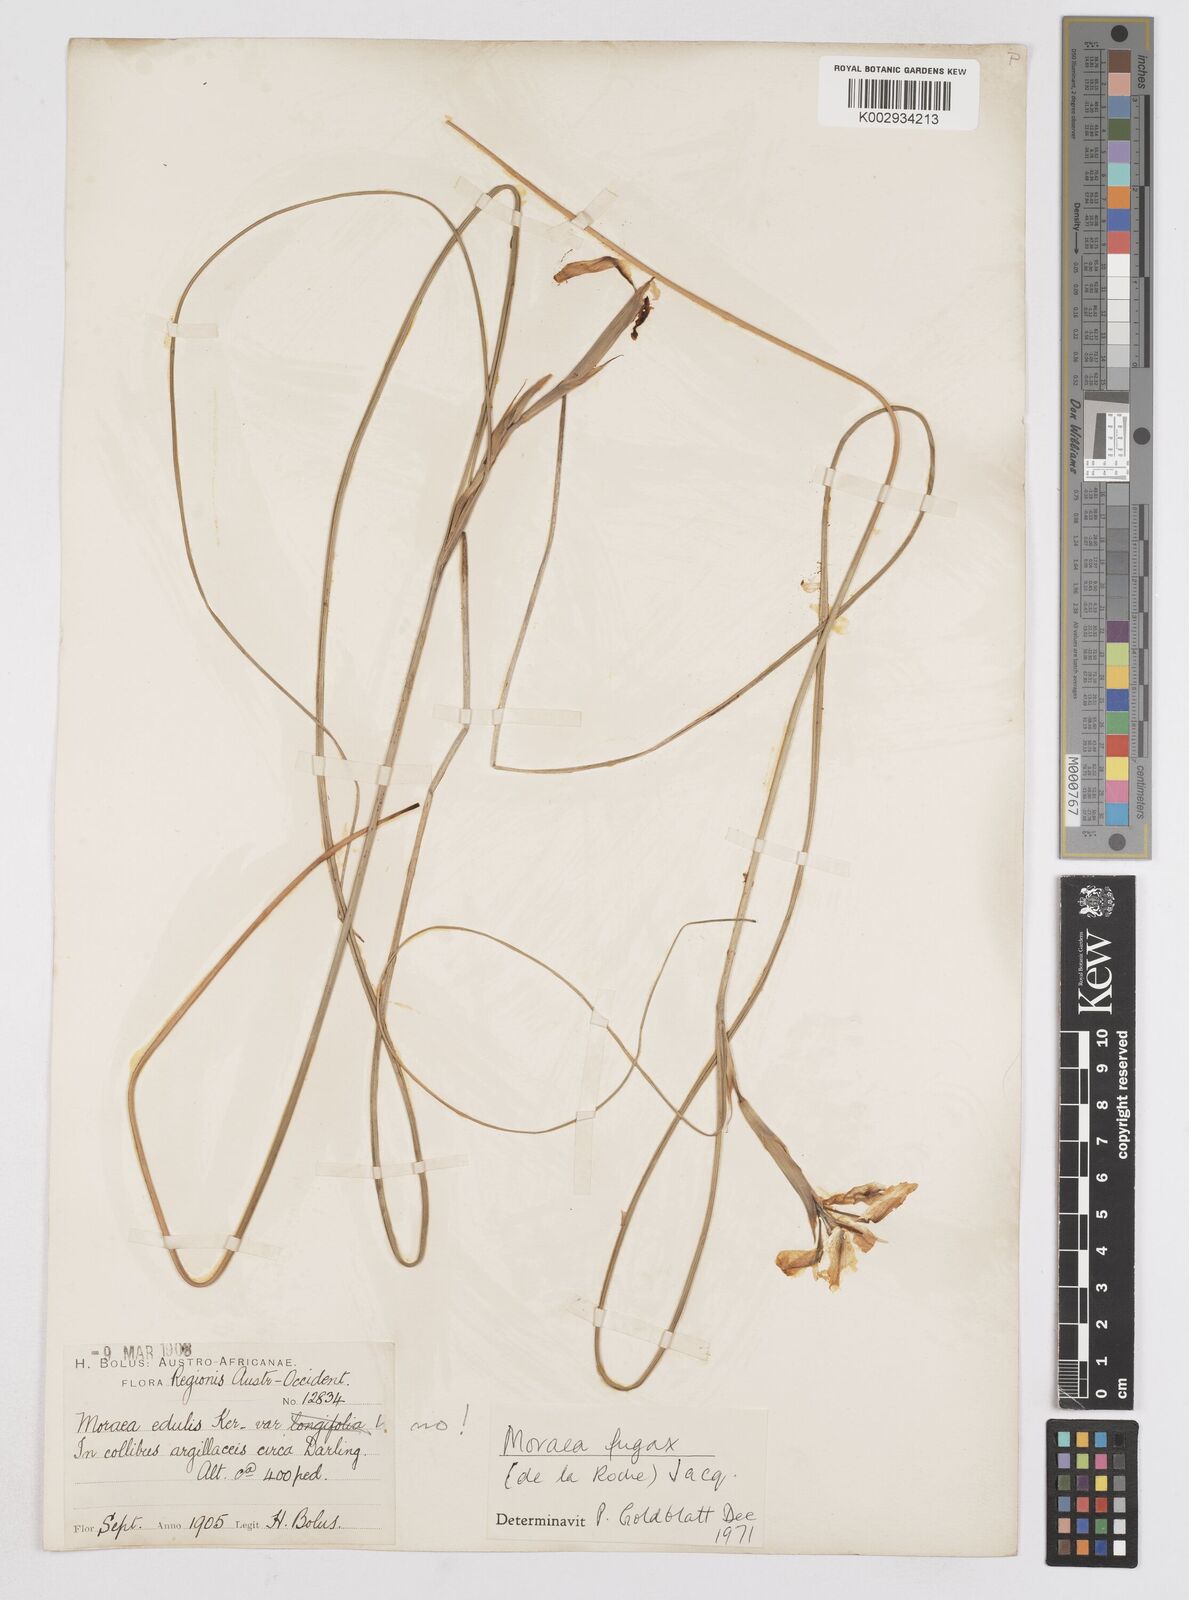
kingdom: Plantae
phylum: Tracheophyta
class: Liliopsida
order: Asparagales
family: Iridaceae
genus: Moraea
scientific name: Moraea fugax
